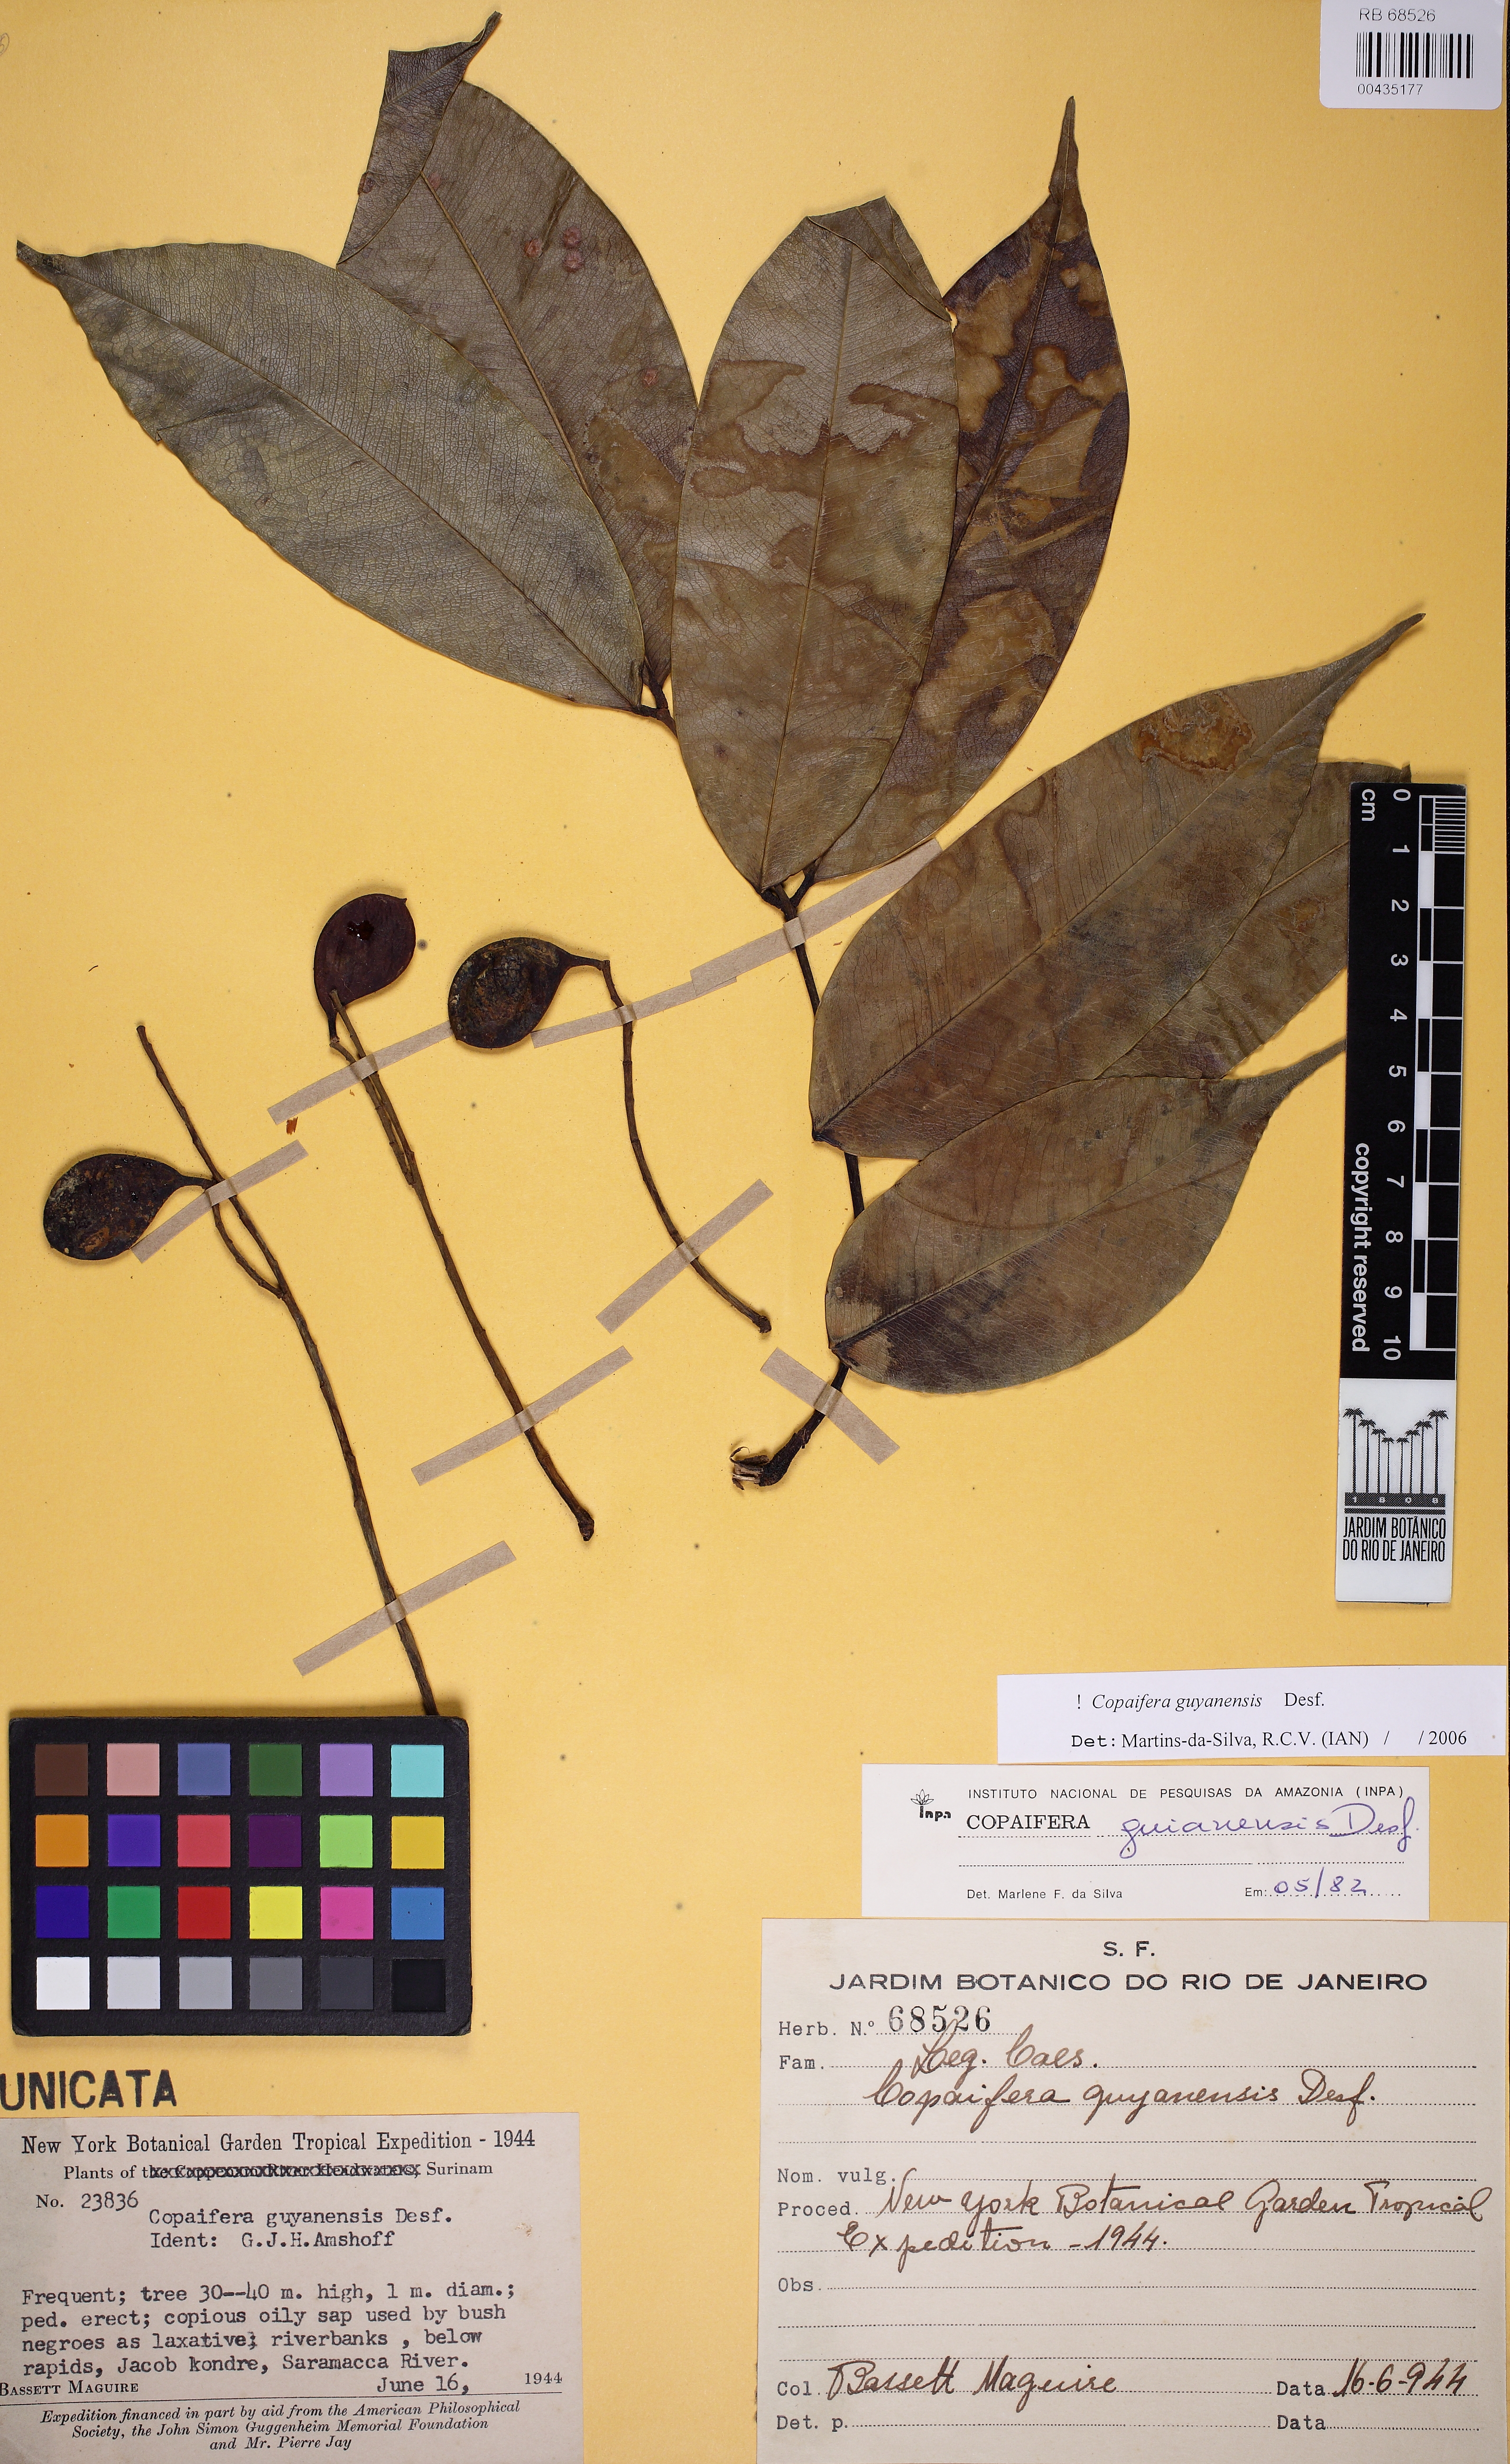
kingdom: Plantae
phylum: Tracheophyta
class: Magnoliopsida
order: Fabales
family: Fabaceae
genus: Copaifera
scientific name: Copaifera guianensis
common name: Copaiba
